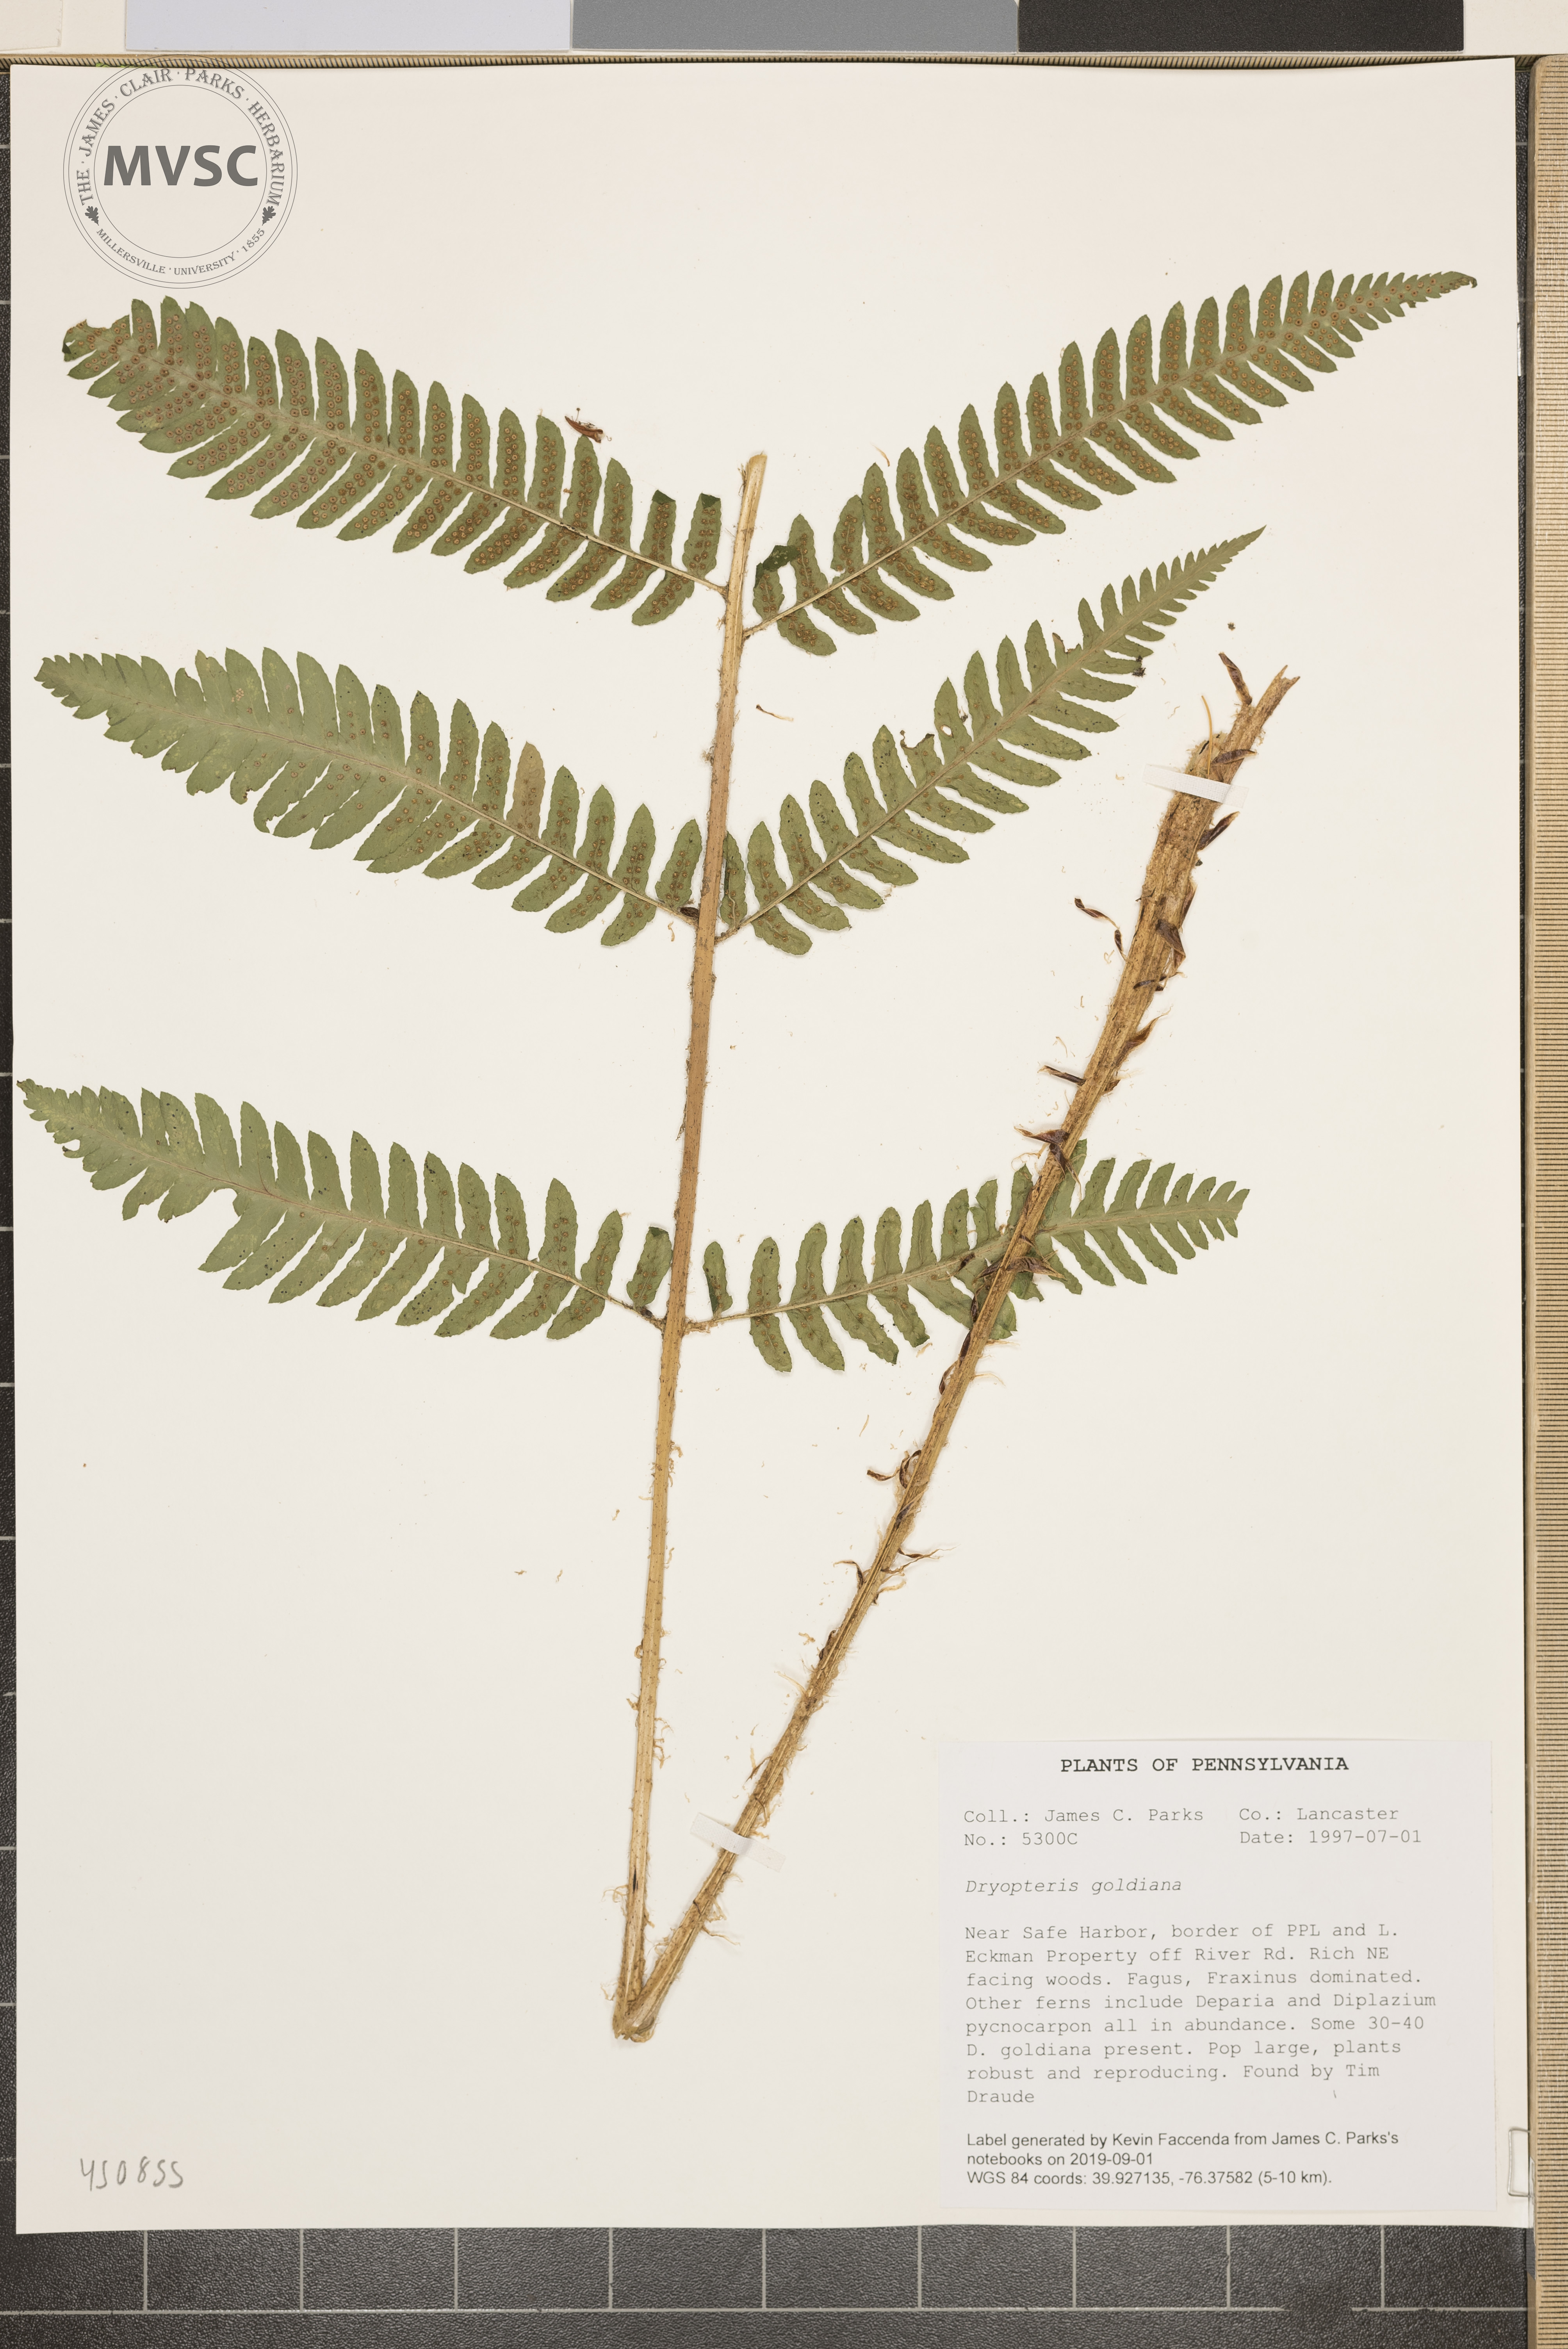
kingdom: Plantae
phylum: Tracheophyta
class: Polypodiopsida
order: Polypodiales
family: Dryopteridaceae
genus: Dryopteris
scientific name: Dryopteris goeldiana
